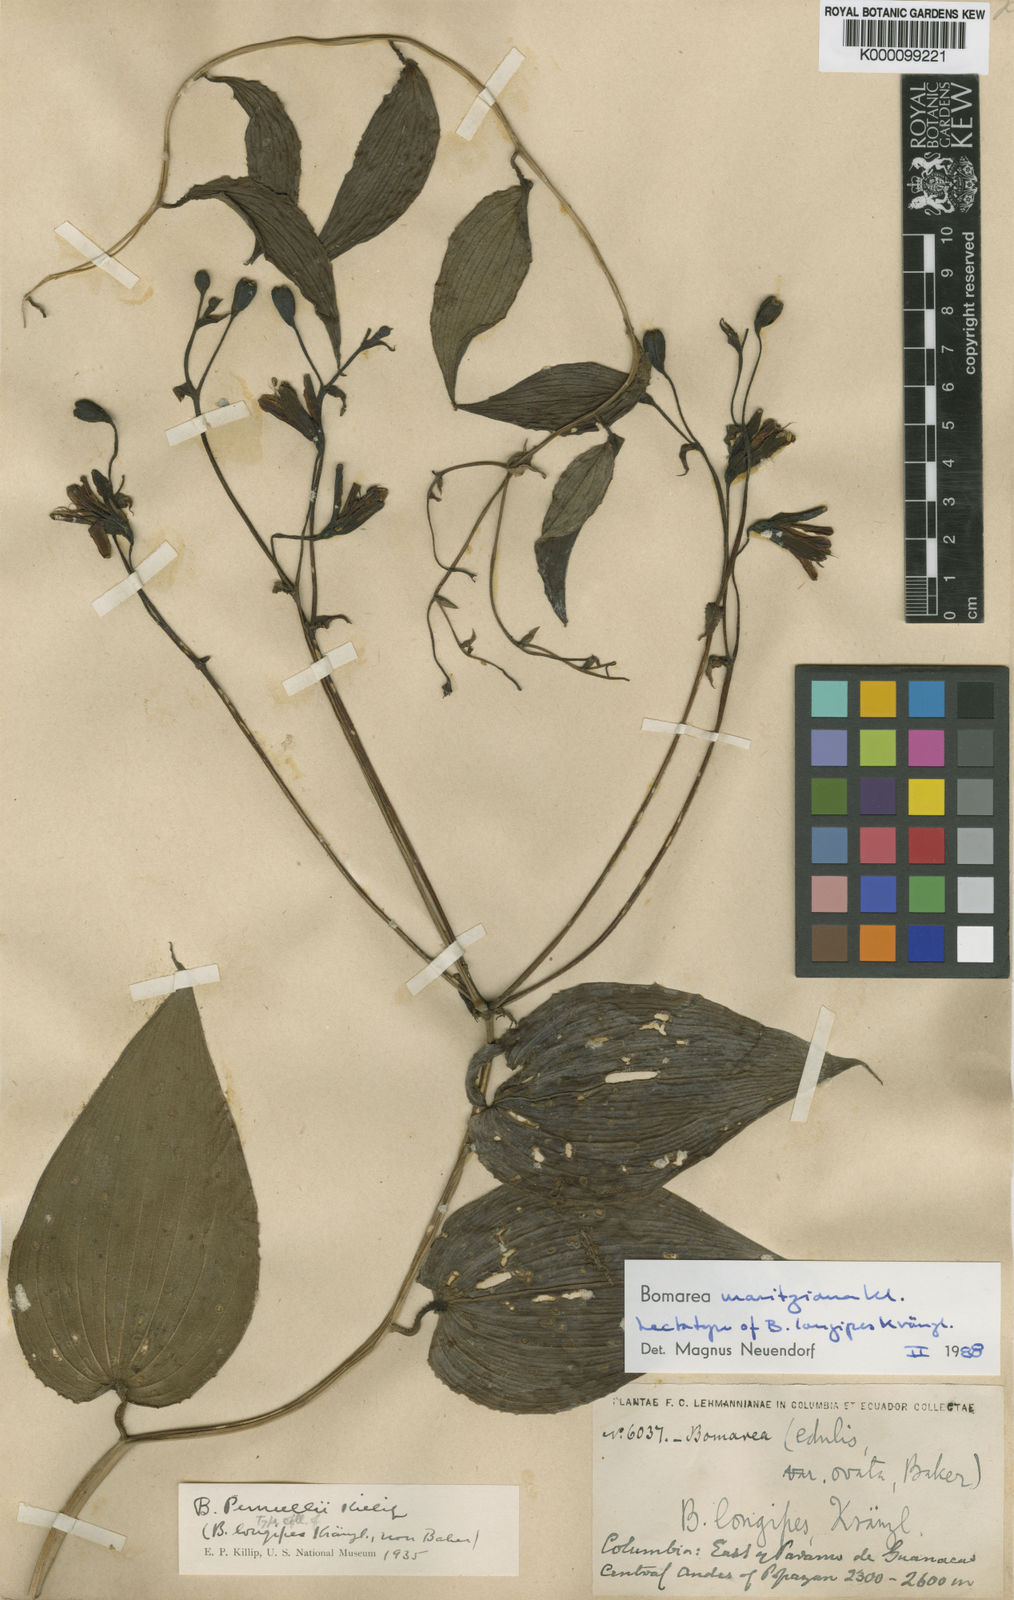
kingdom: Plantae
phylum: Tracheophyta
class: Liliopsida
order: Liliales
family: Alstroemeriaceae
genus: Bomarea
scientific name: Bomarea moritziana
